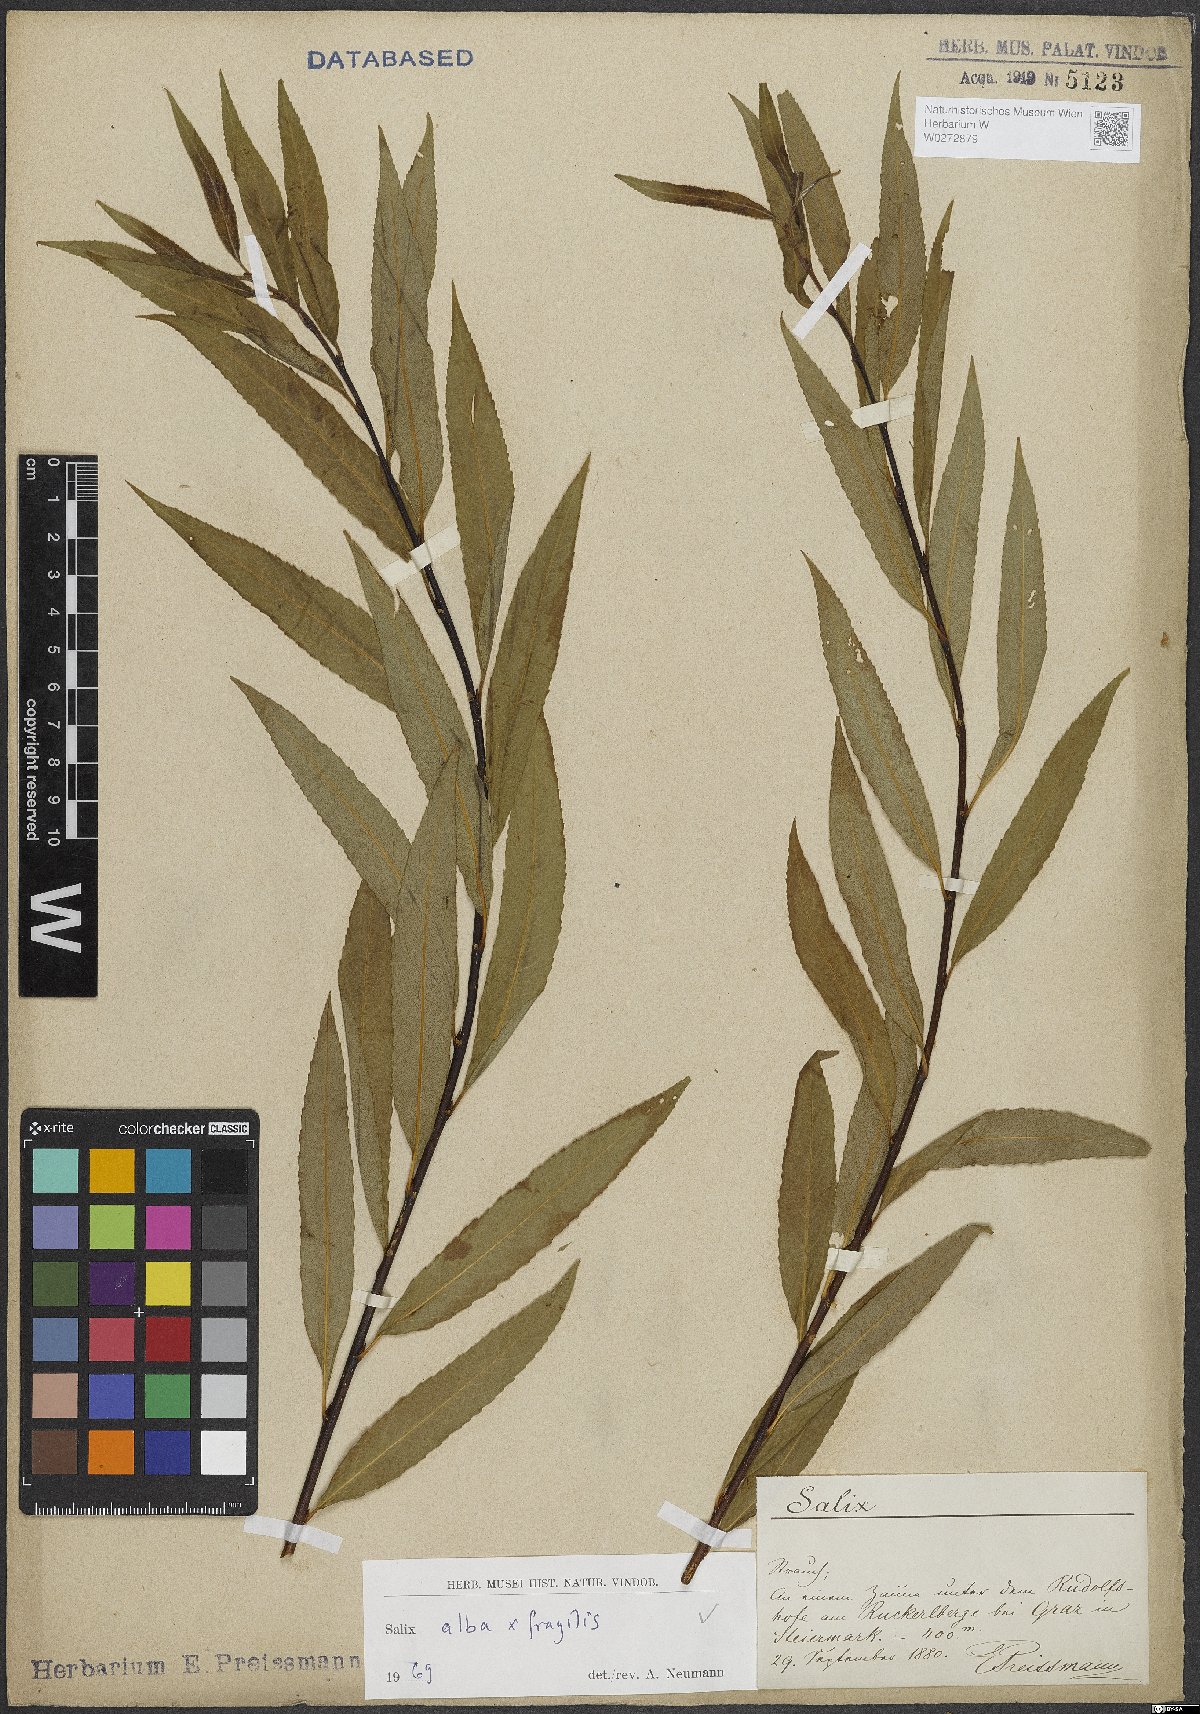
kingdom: Plantae
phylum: Tracheophyta
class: Magnoliopsida
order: Malpighiales
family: Salicaceae
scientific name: Salicaceae
